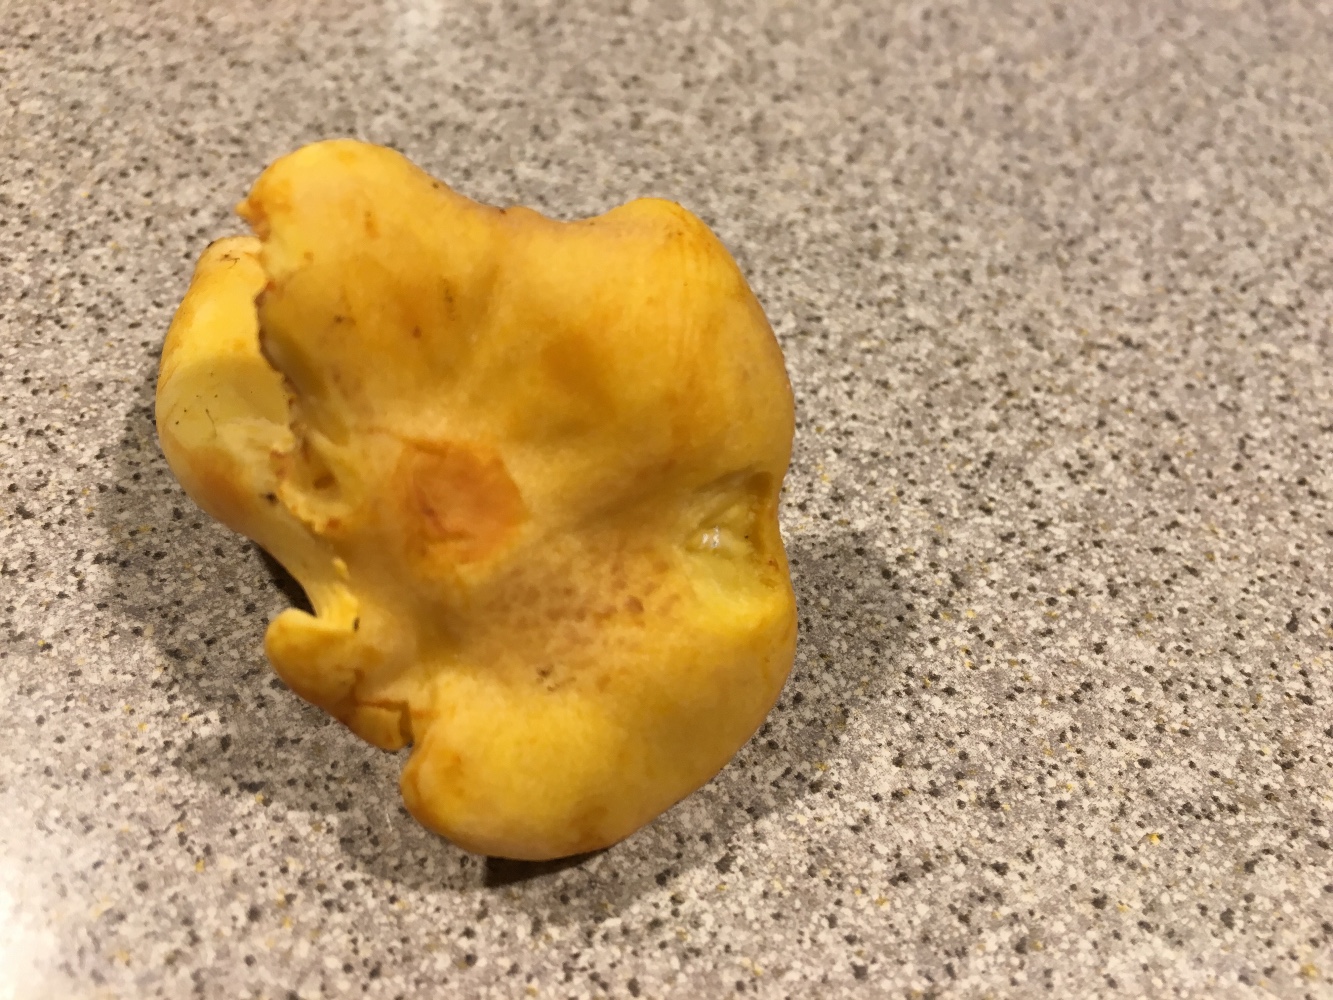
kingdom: Fungi
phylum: Basidiomycota
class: Agaricomycetes
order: Cantharellales
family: Hydnaceae
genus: Cantharellus
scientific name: Cantharellus amethysteus
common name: ametyst-kantarel
